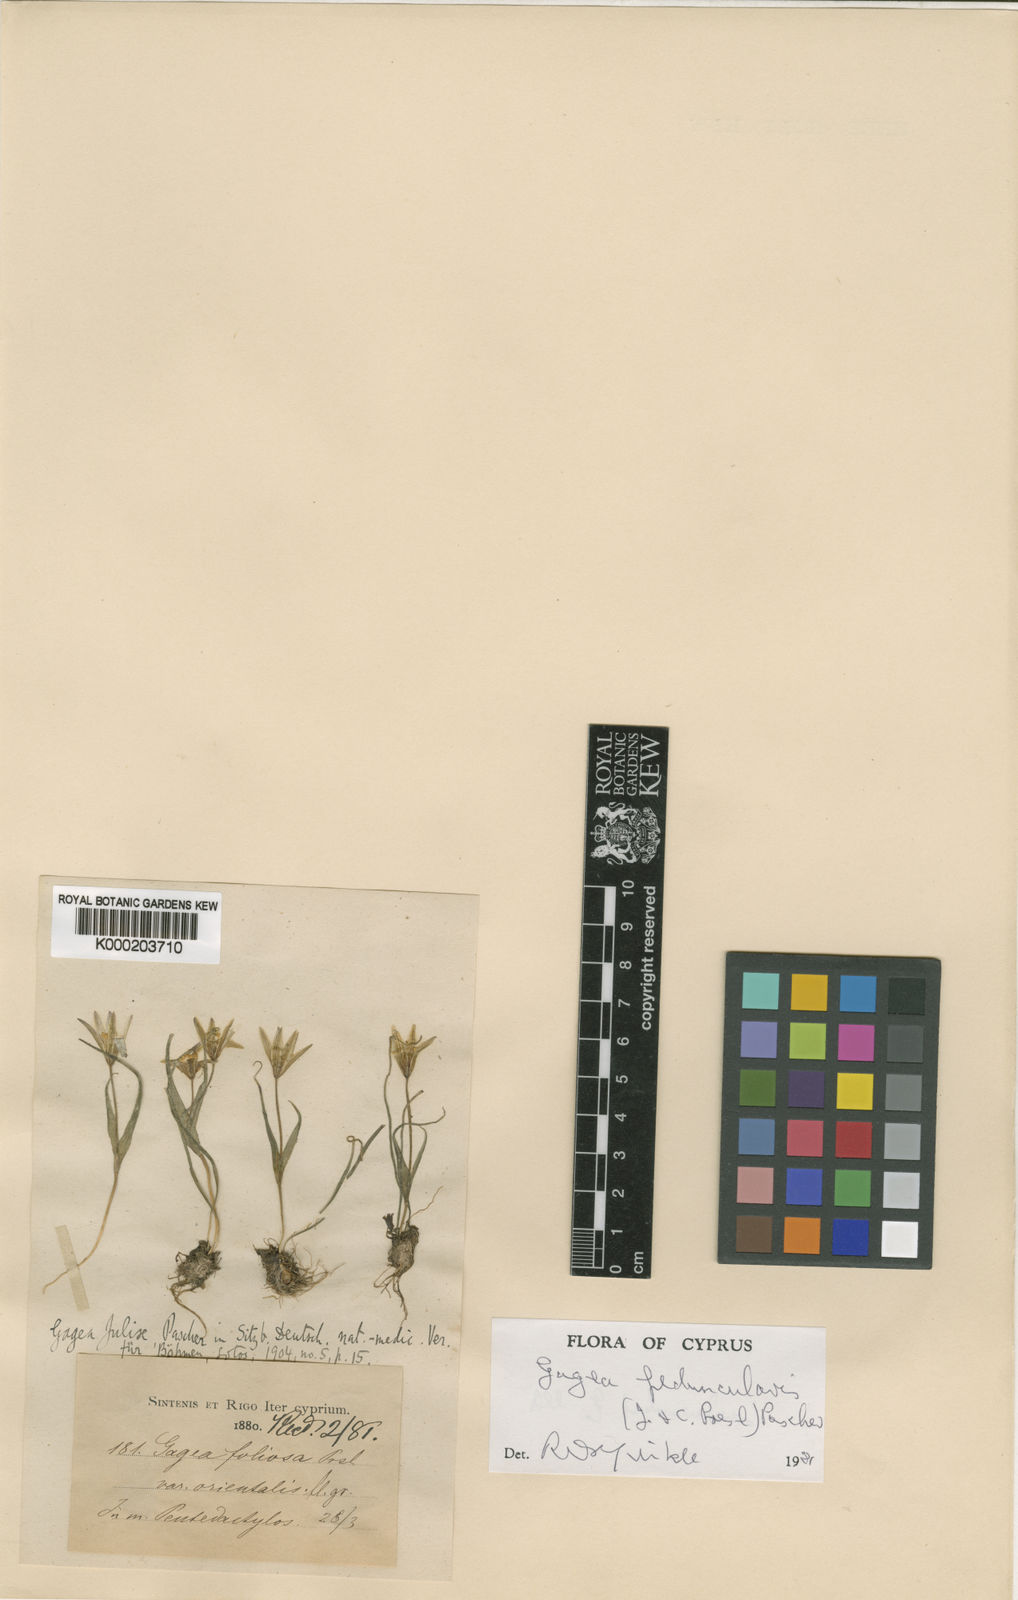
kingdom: Plantae
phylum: Tracheophyta
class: Liliopsida
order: Liliales
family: Liliaceae
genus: Gagea
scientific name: Gagea juliae
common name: Julia’s gagea
